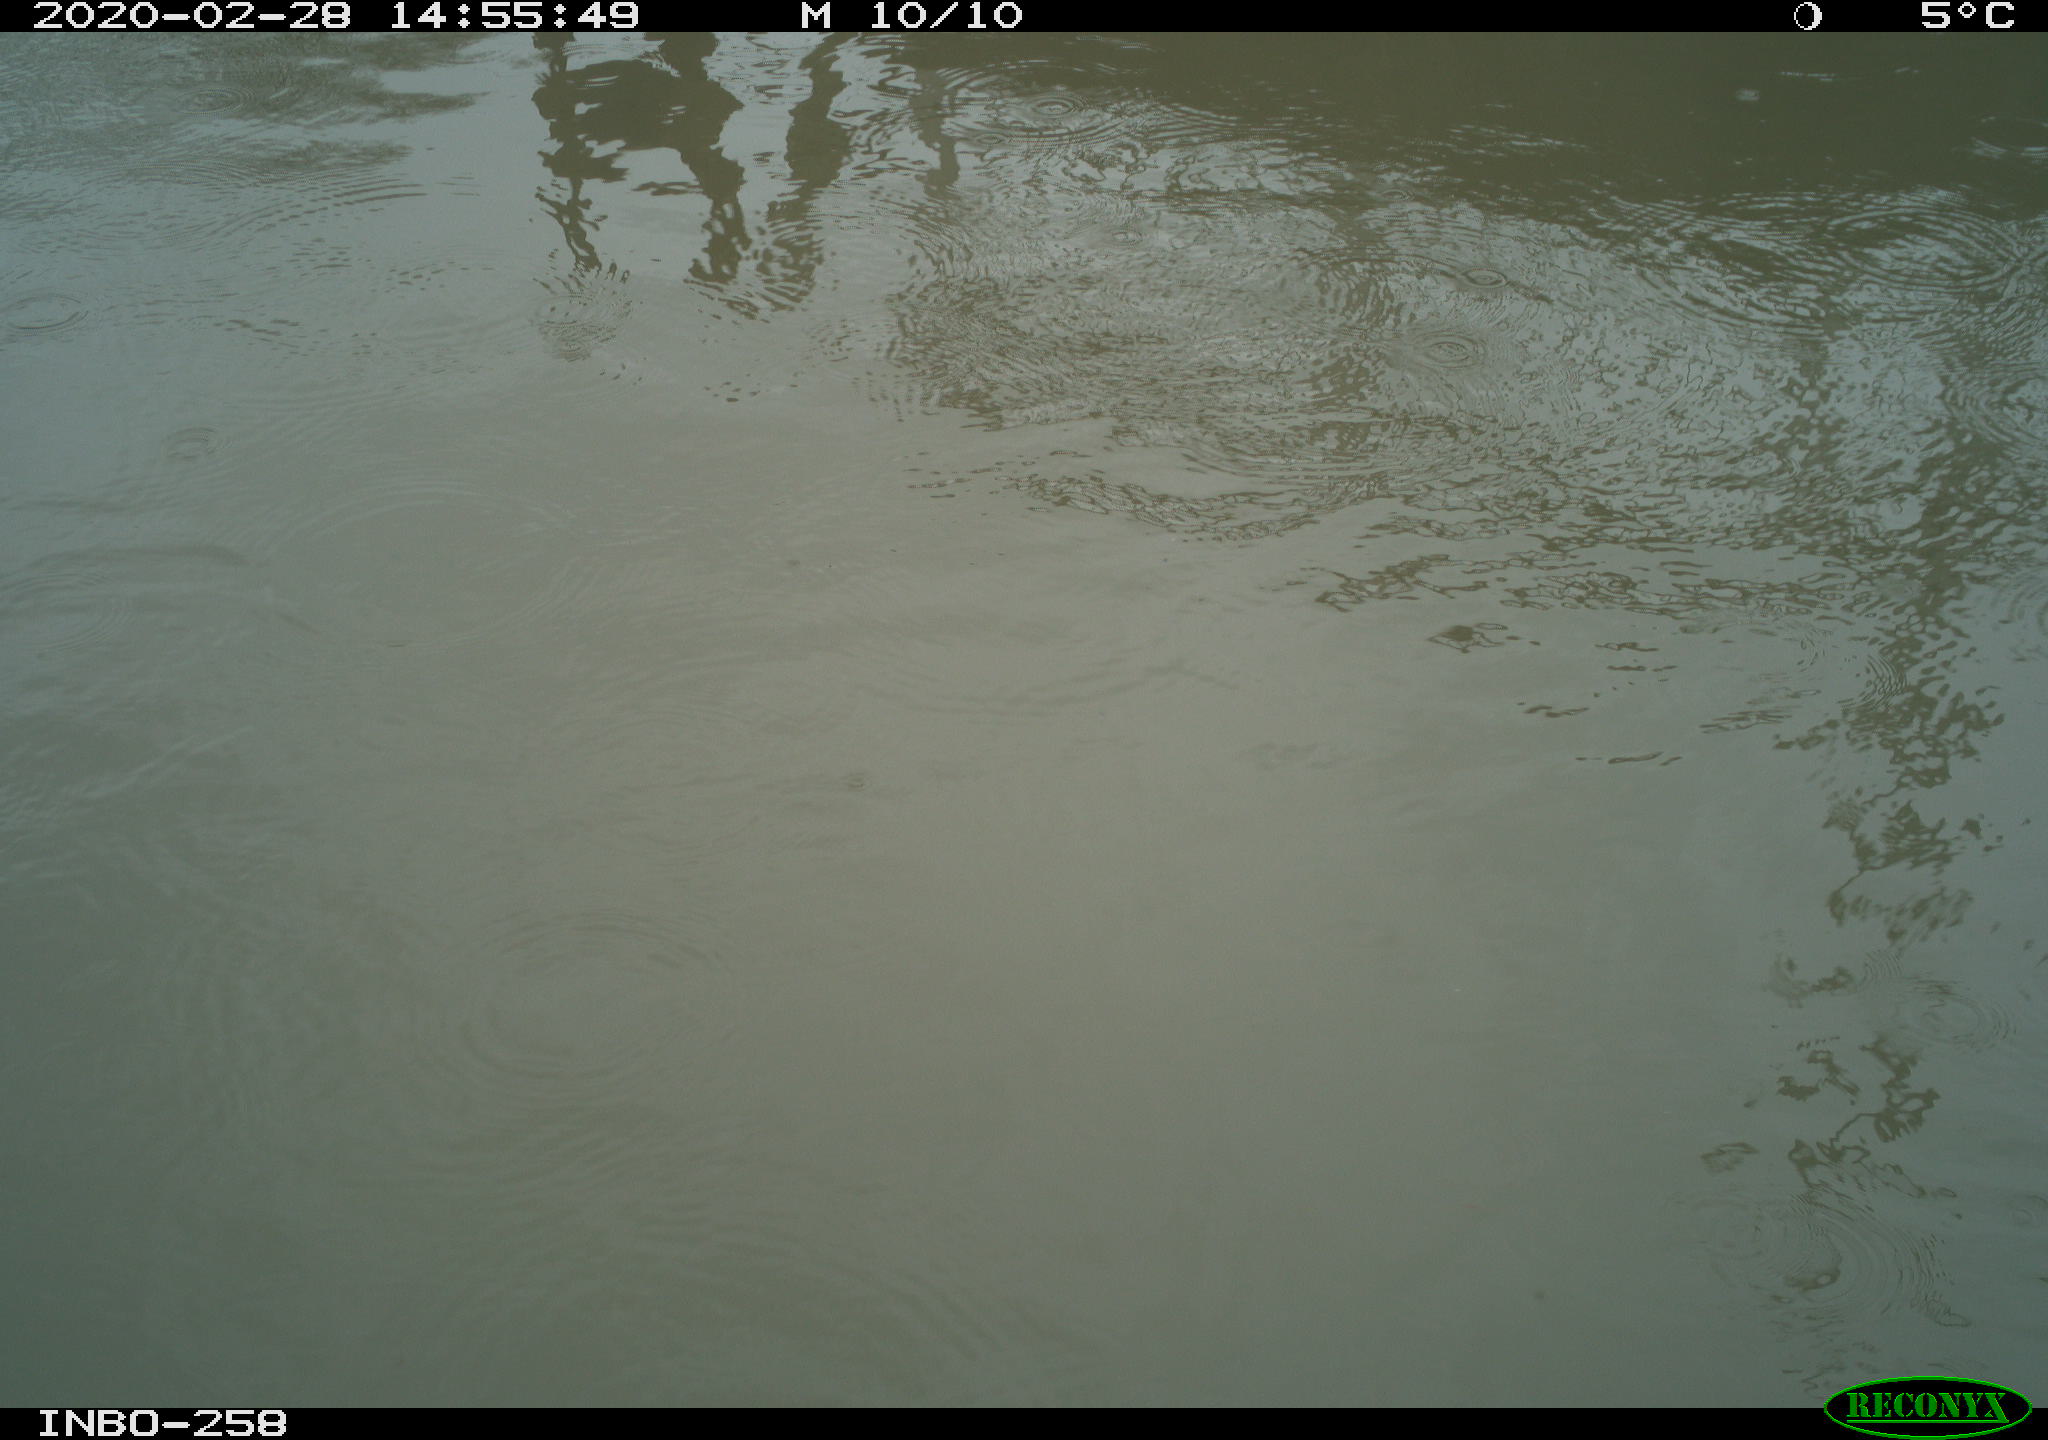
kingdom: Animalia
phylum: Chordata
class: Aves
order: Gruiformes
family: Rallidae
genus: Gallinula
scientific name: Gallinula chloropus
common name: Common moorhen
